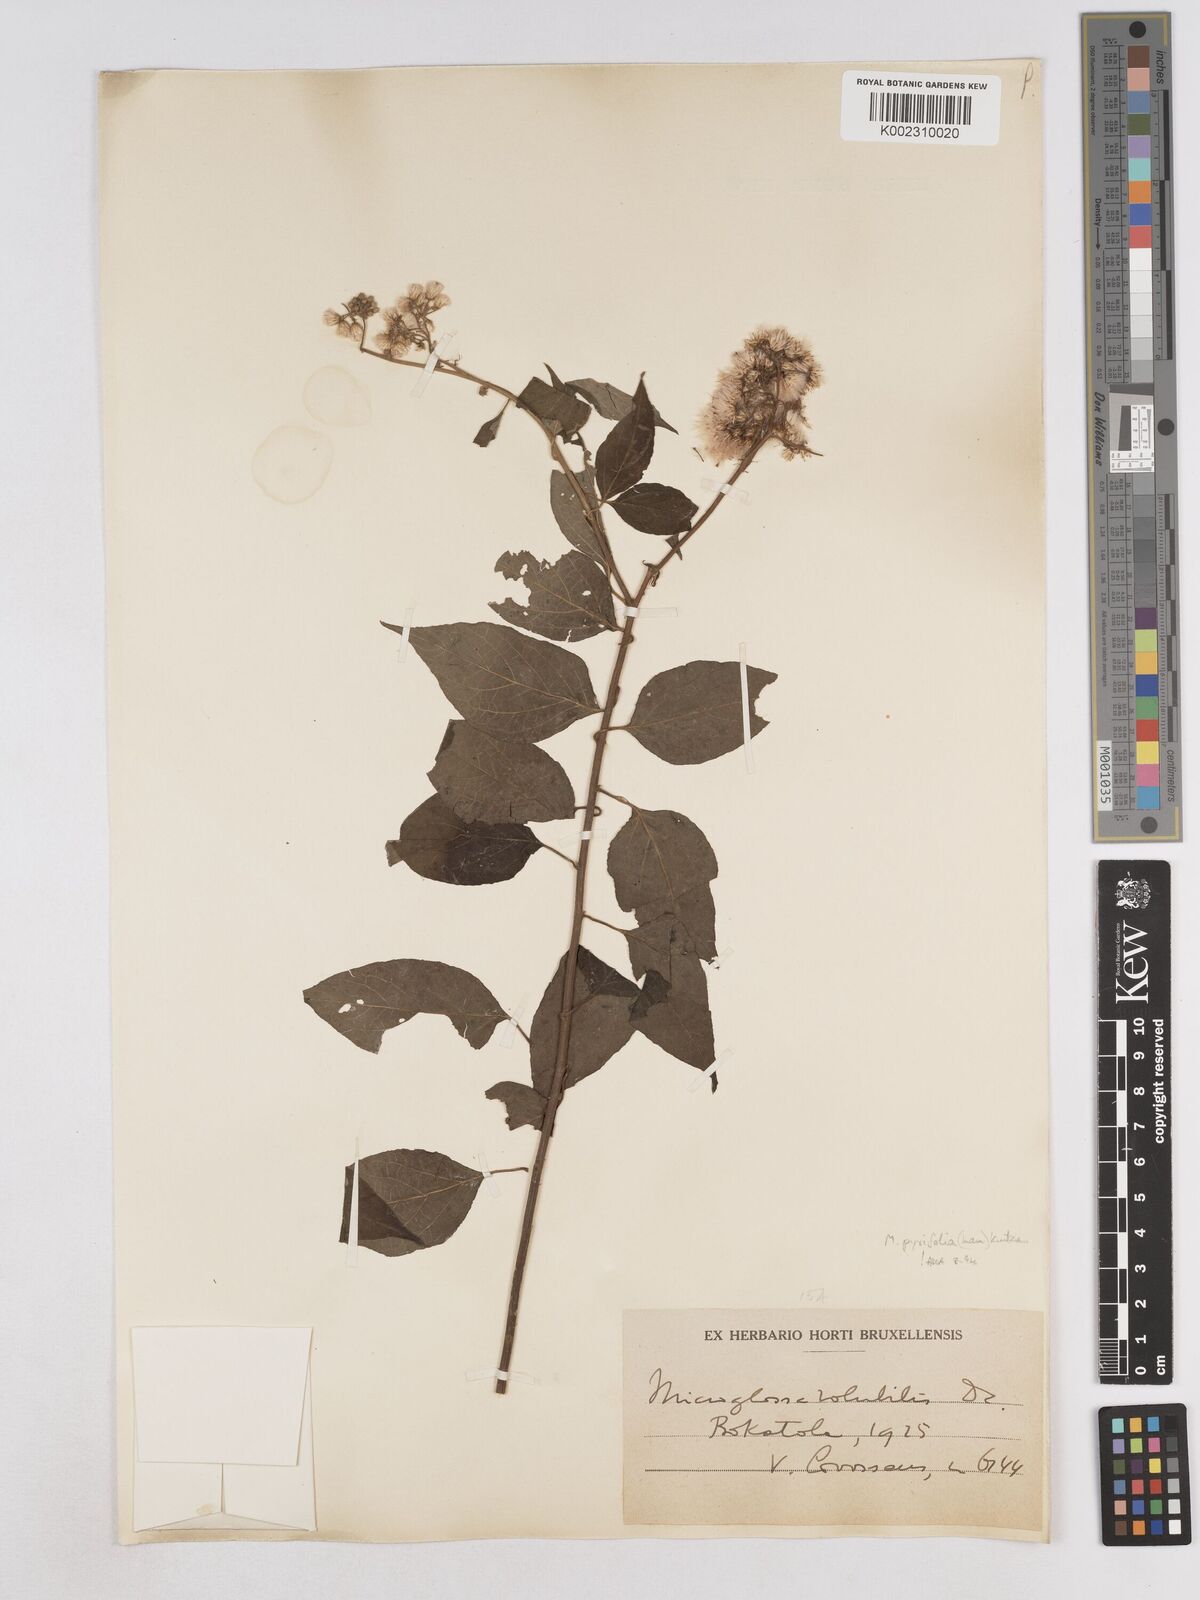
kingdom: Plantae
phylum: Tracheophyta
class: Magnoliopsida
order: Asterales
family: Asteraceae
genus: Microglossa
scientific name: Microglossa pyrifolia
